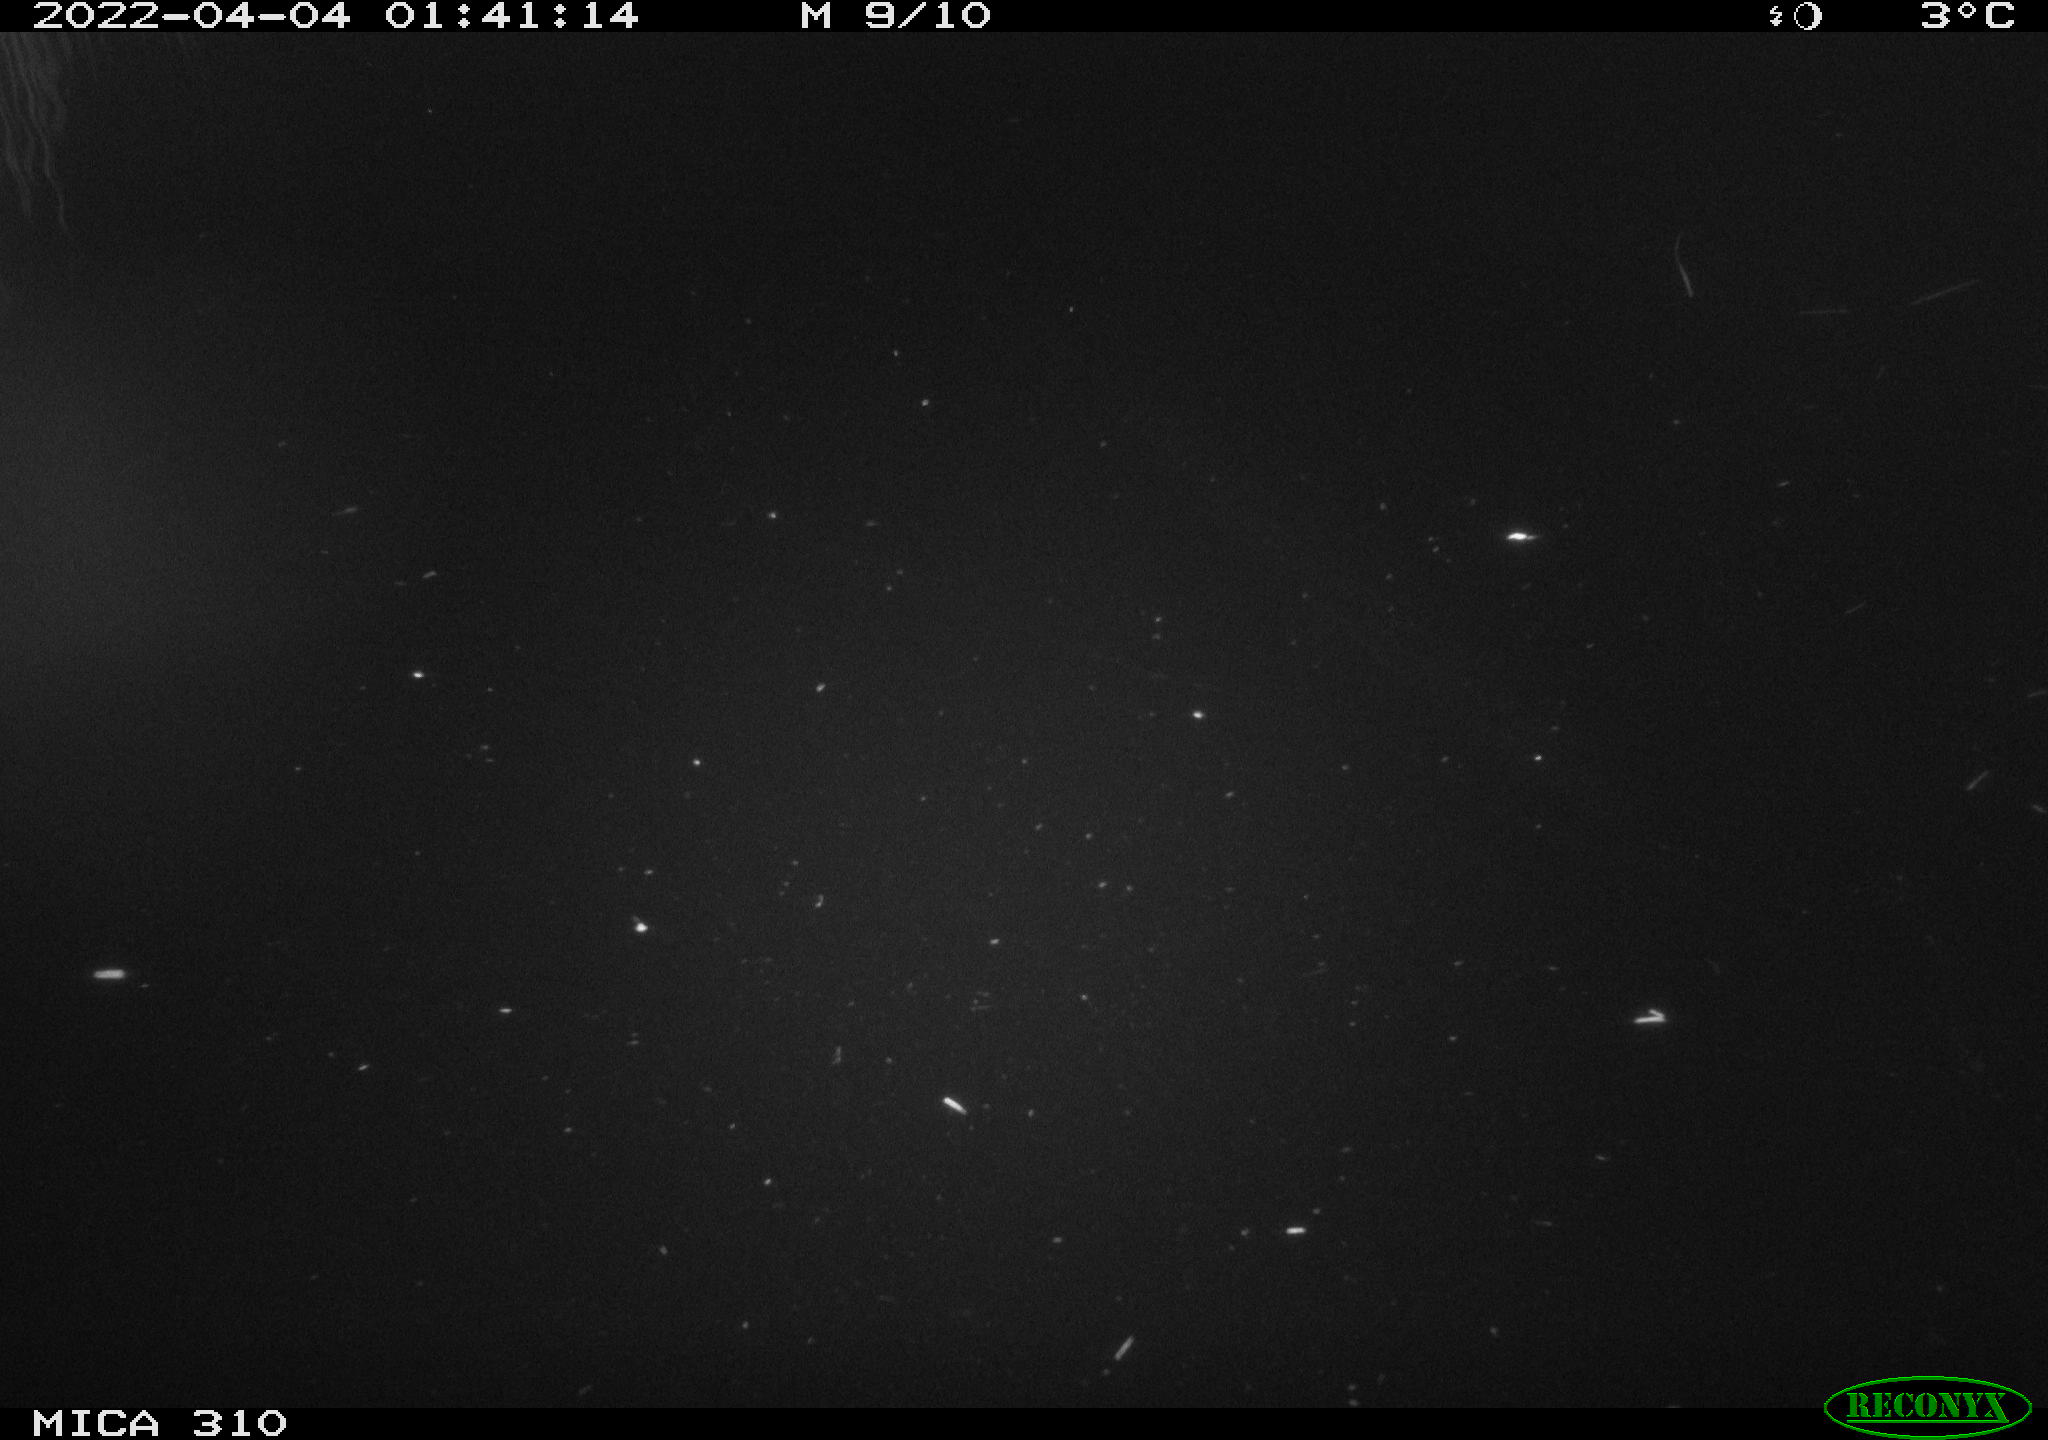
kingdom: Animalia
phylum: Chordata
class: Aves
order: Anseriformes
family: Anatidae
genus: Anas
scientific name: Anas platyrhynchos
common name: Mallard
